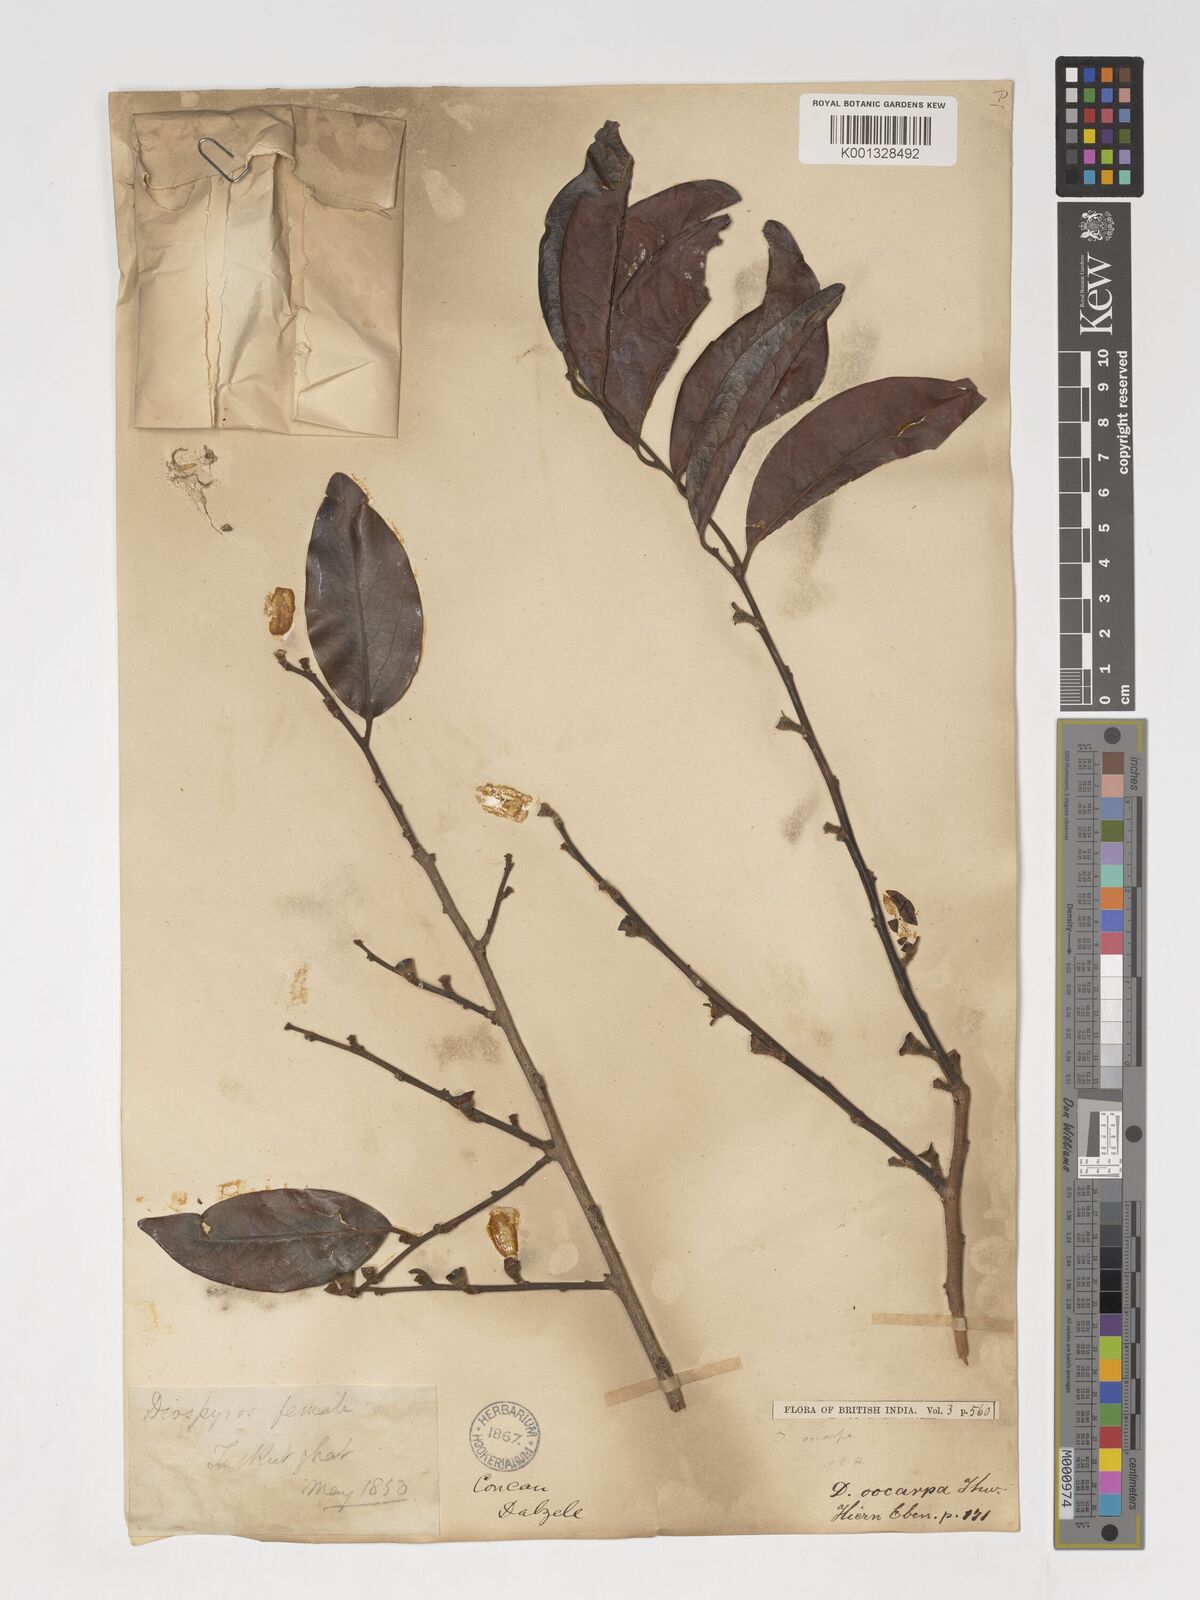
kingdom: Plantae
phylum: Tracheophyta
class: Magnoliopsida
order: Ericales
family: Ebenaceae
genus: Diospyros
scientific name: Diospyros oocarpa
